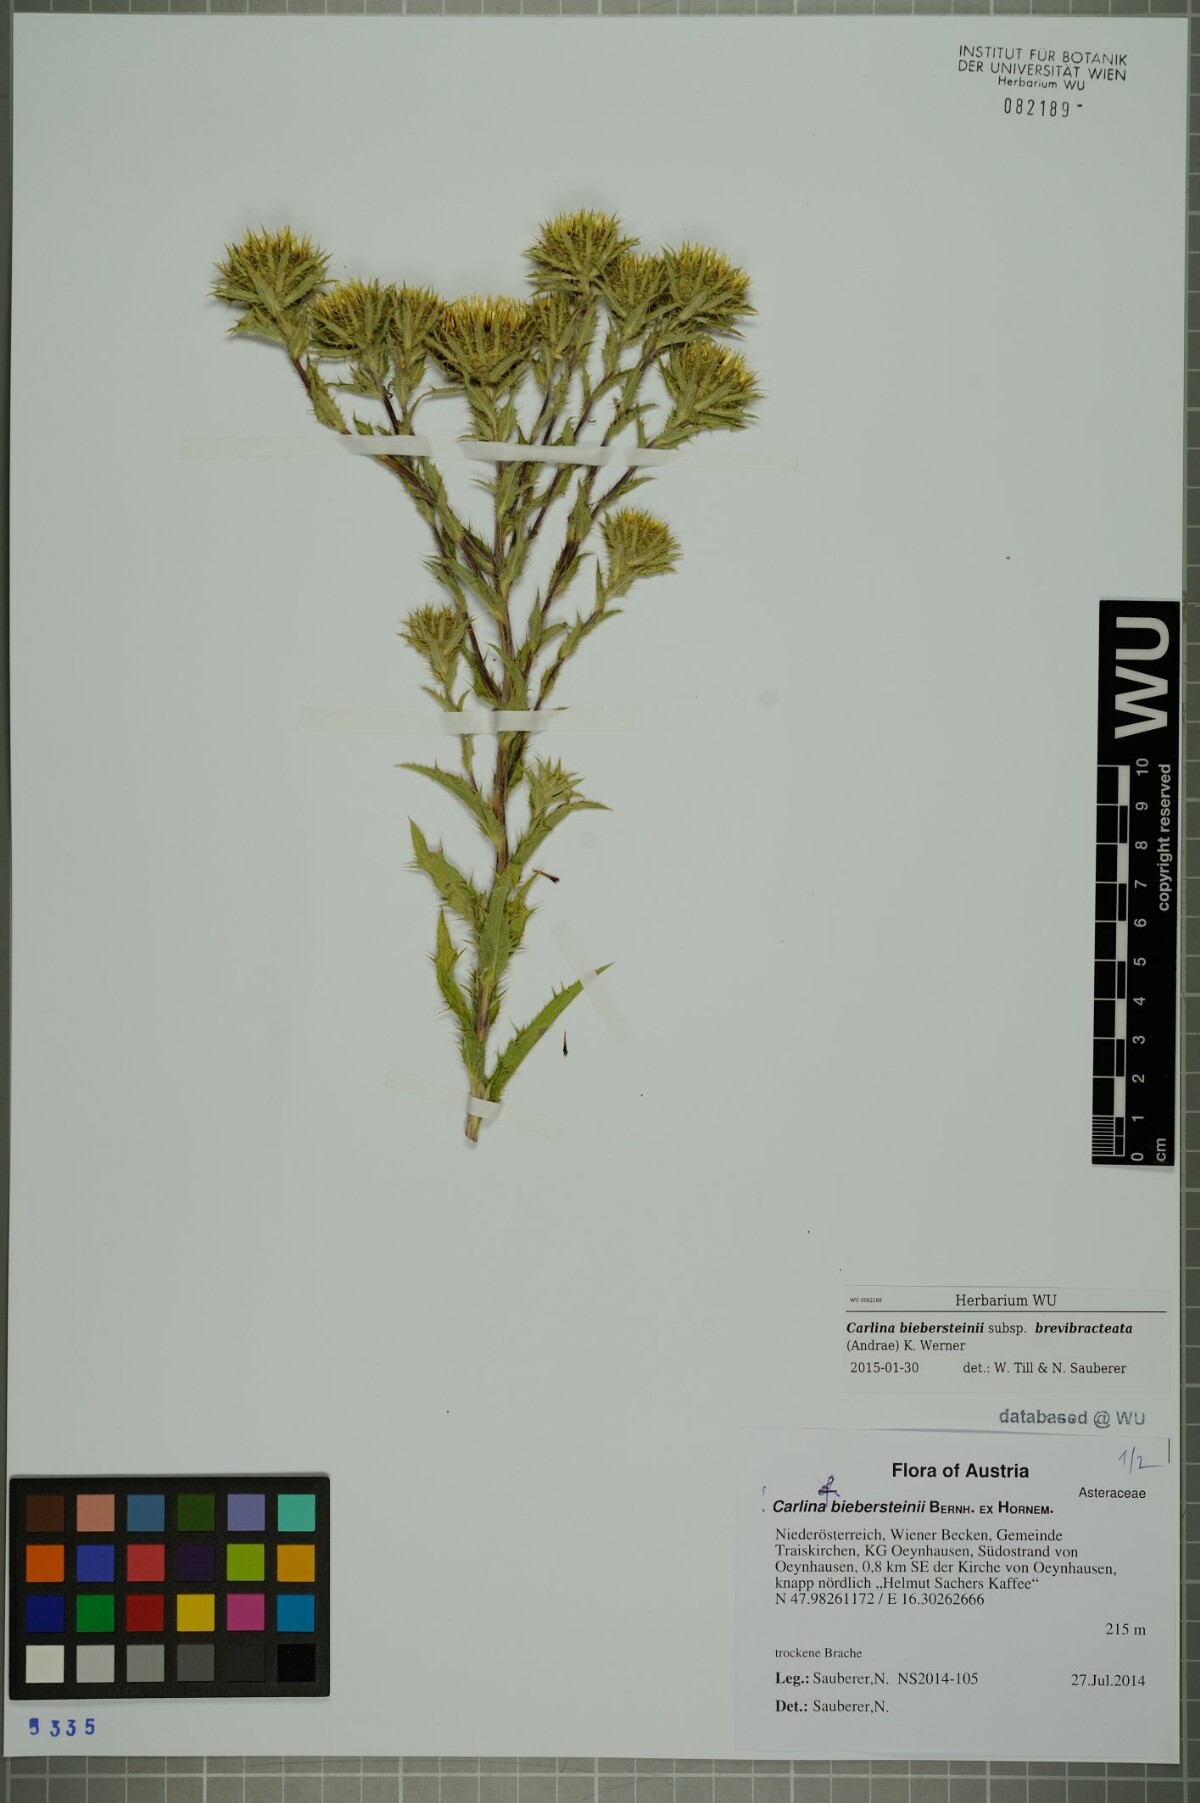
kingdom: Plantae
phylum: Tracheophyta
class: Magnoliopsida
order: Asterales
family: Asteraceae
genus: Carlina
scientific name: Carlina biebersteinii
